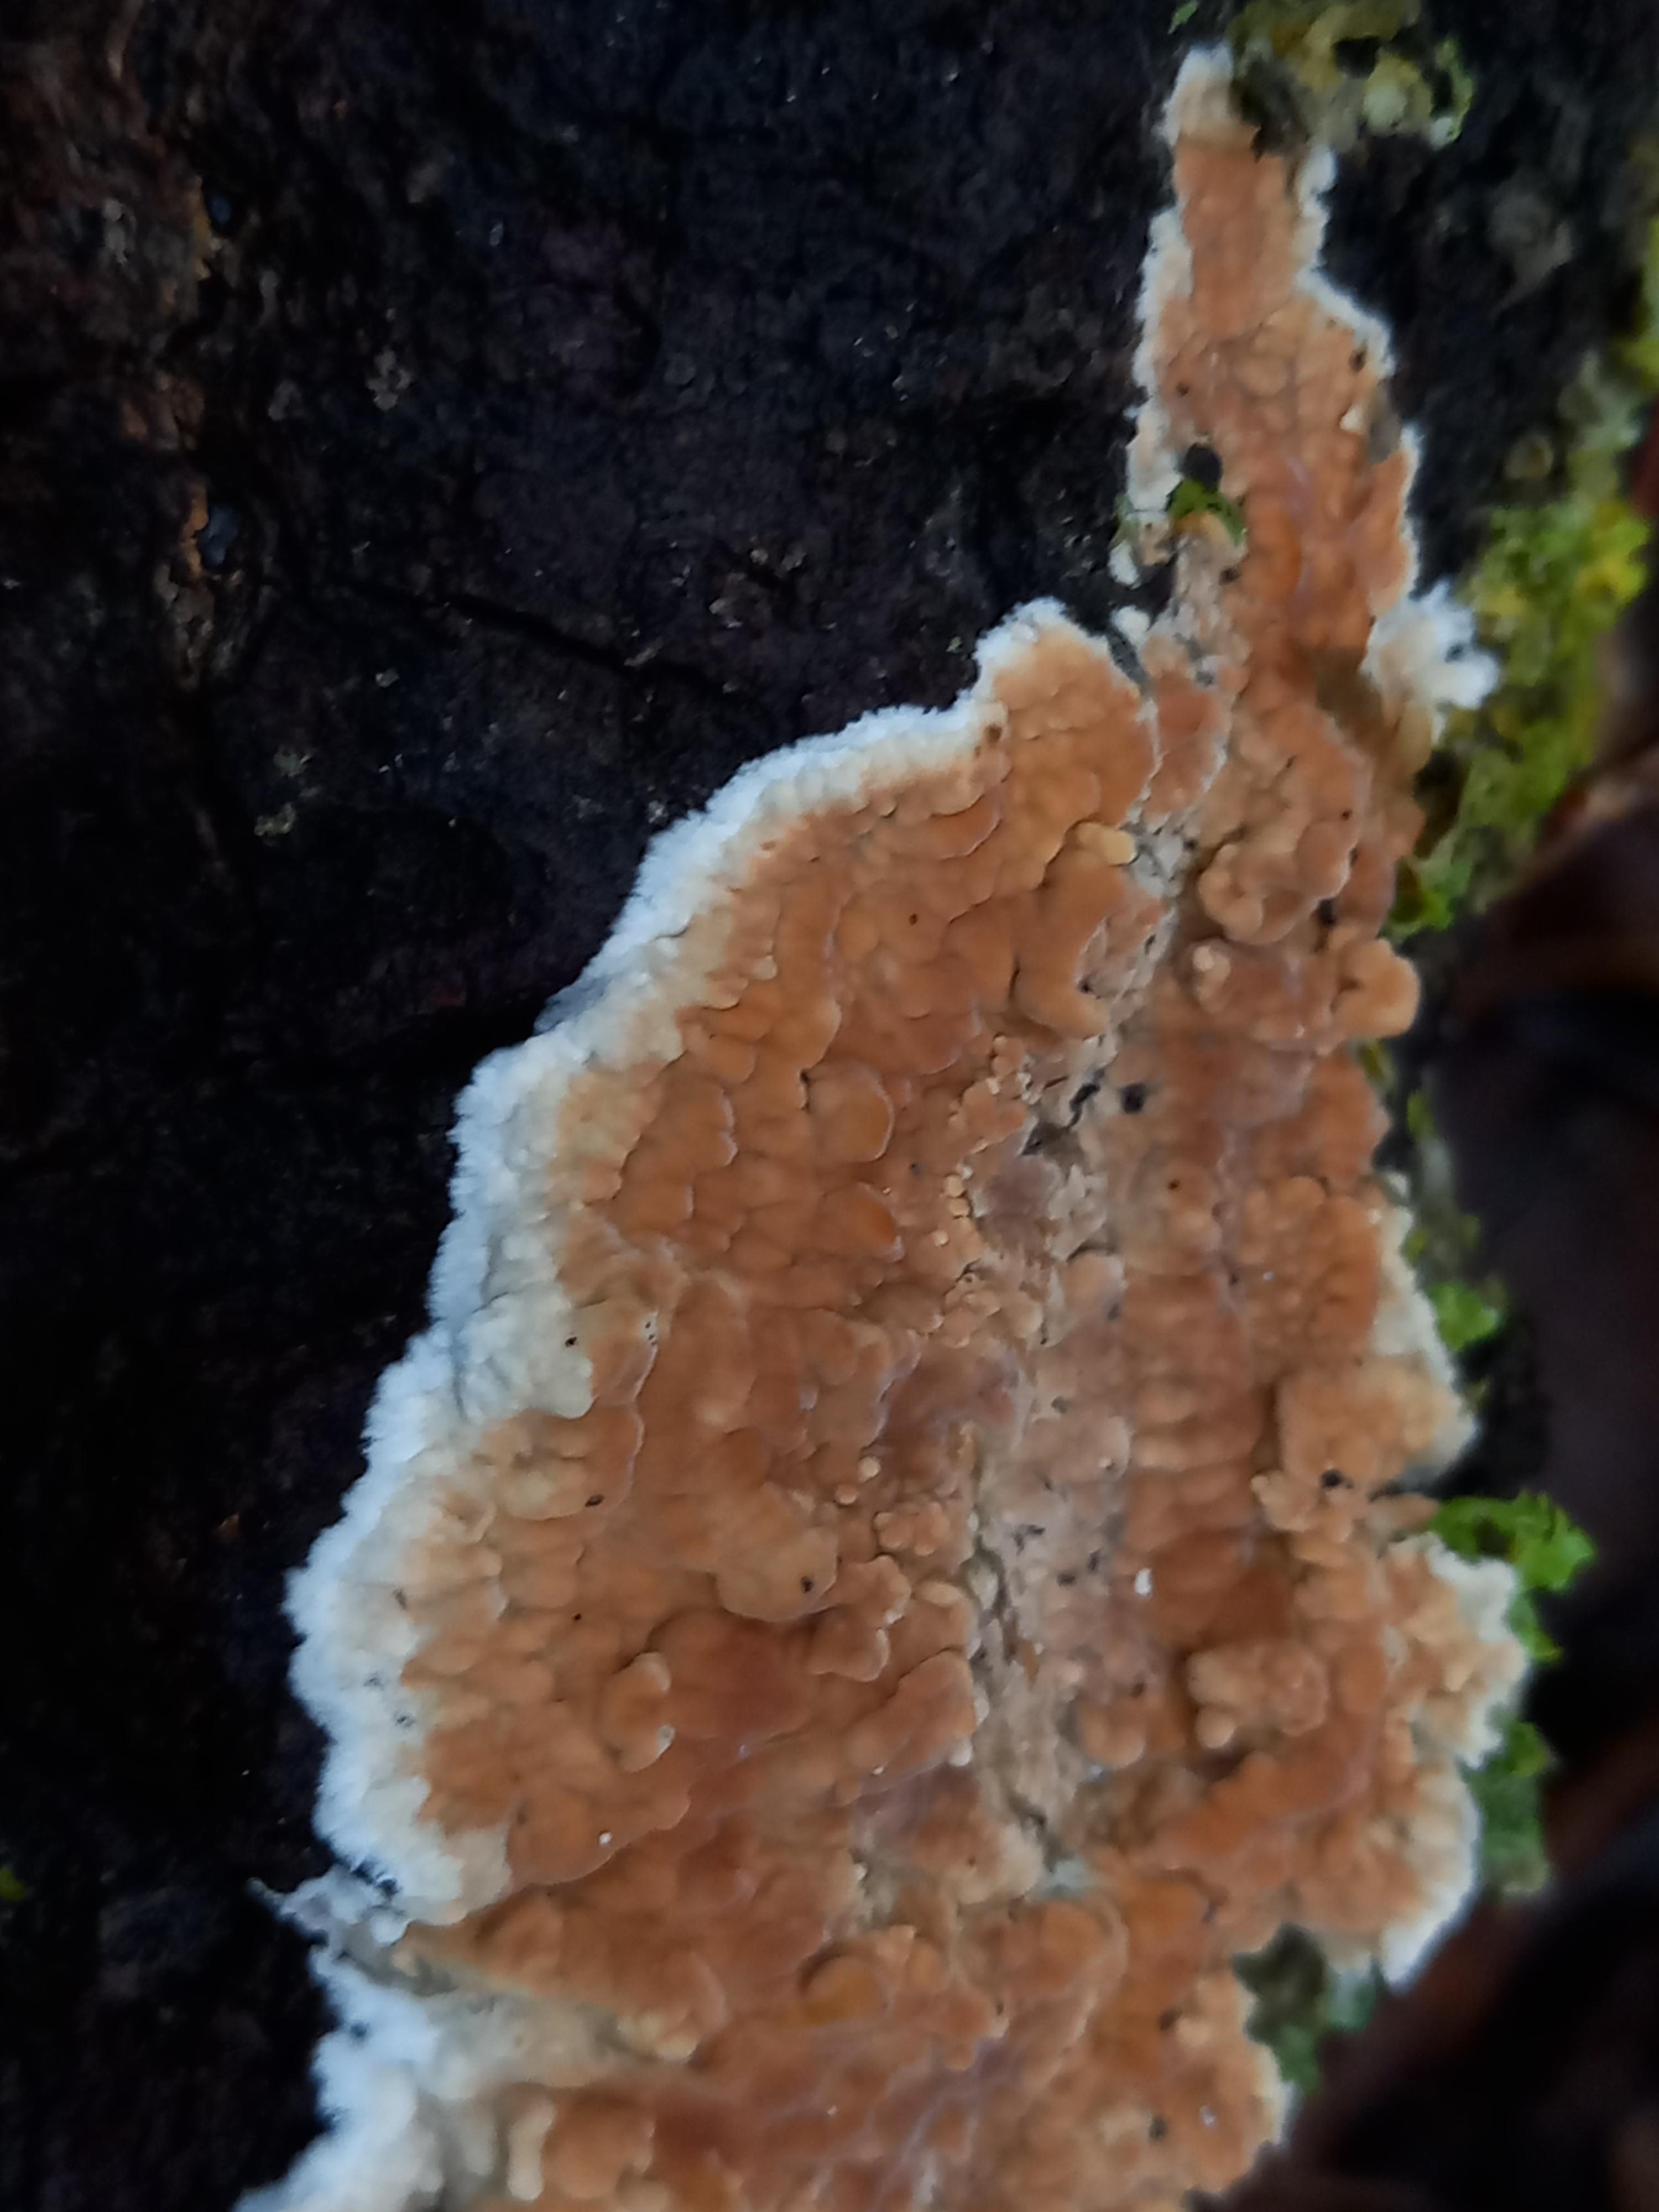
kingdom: Fungi
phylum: Basidiomycota
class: Agaricomycetes
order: Agaricales
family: Physalacriaceae
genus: Cylindrobasidium
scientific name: Cylindrobasidium evolvens
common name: sprækkehinde
